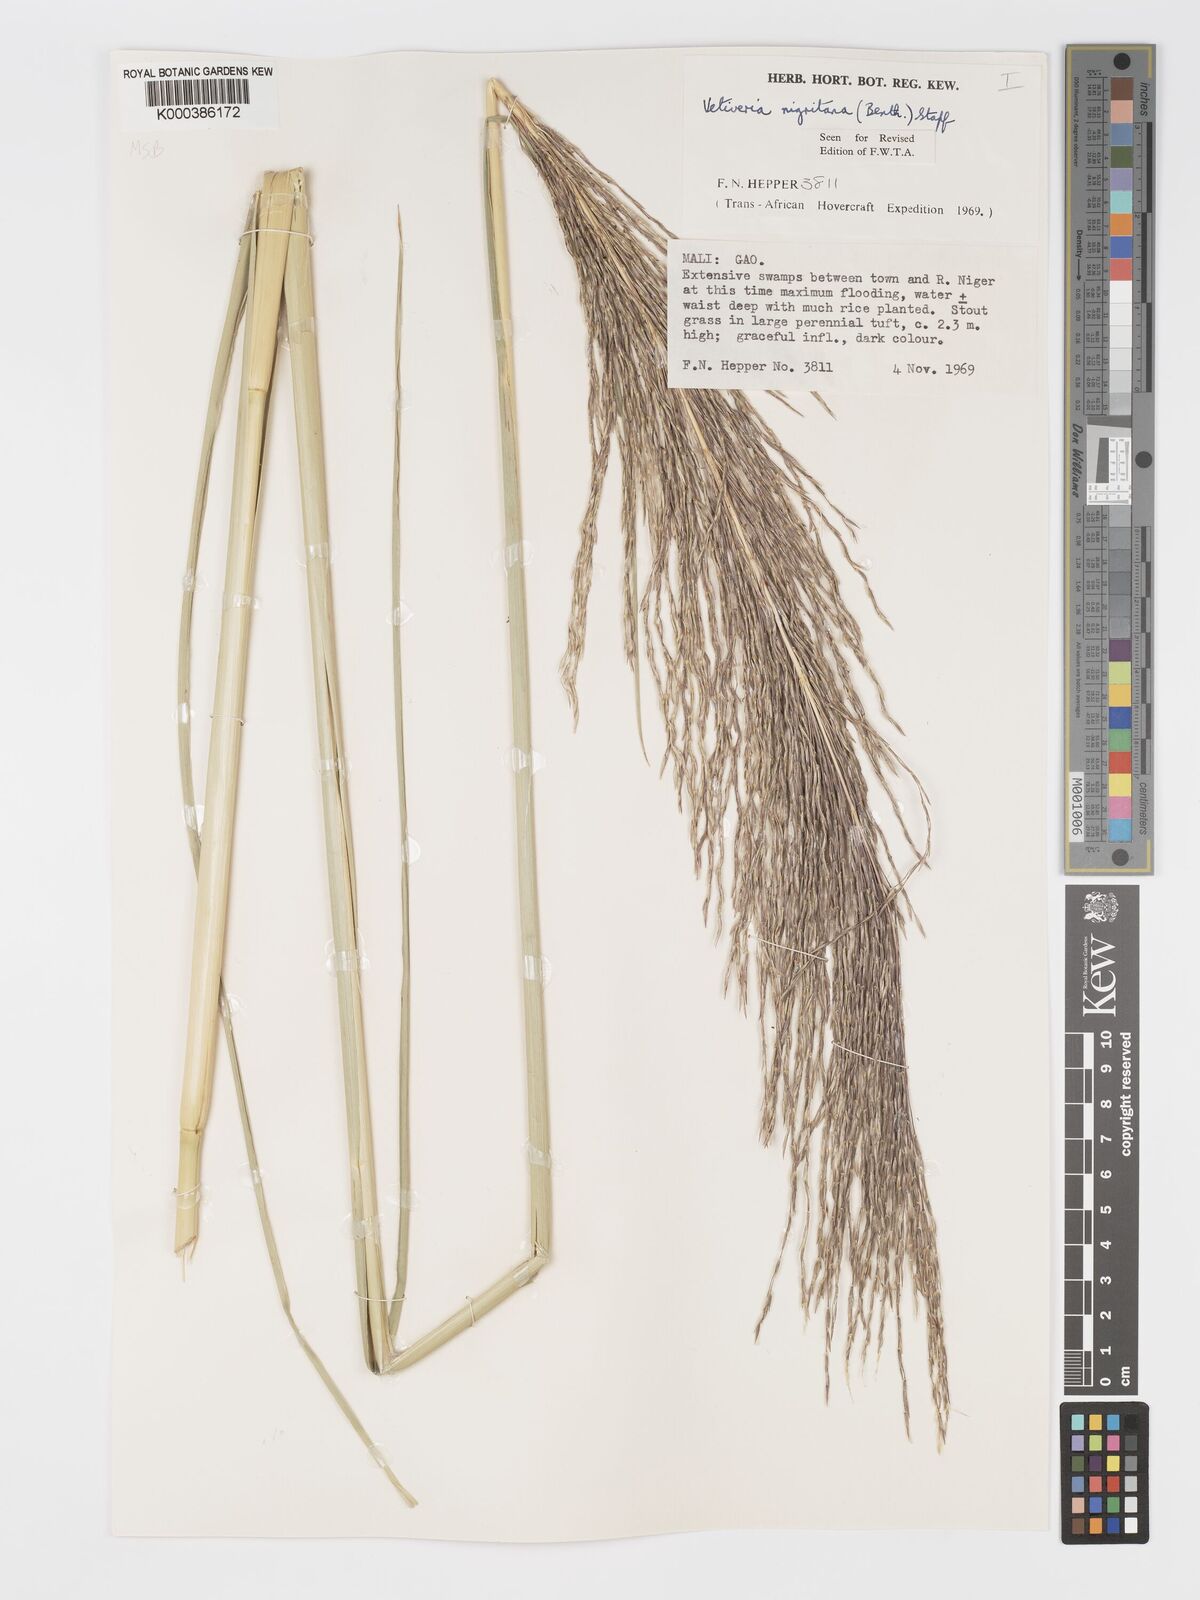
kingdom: Plantae
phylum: Tracheophyta
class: Liliopsida
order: Poales
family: Poaceae
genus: Chrysopogon
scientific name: Chrysopogon nigritanus
